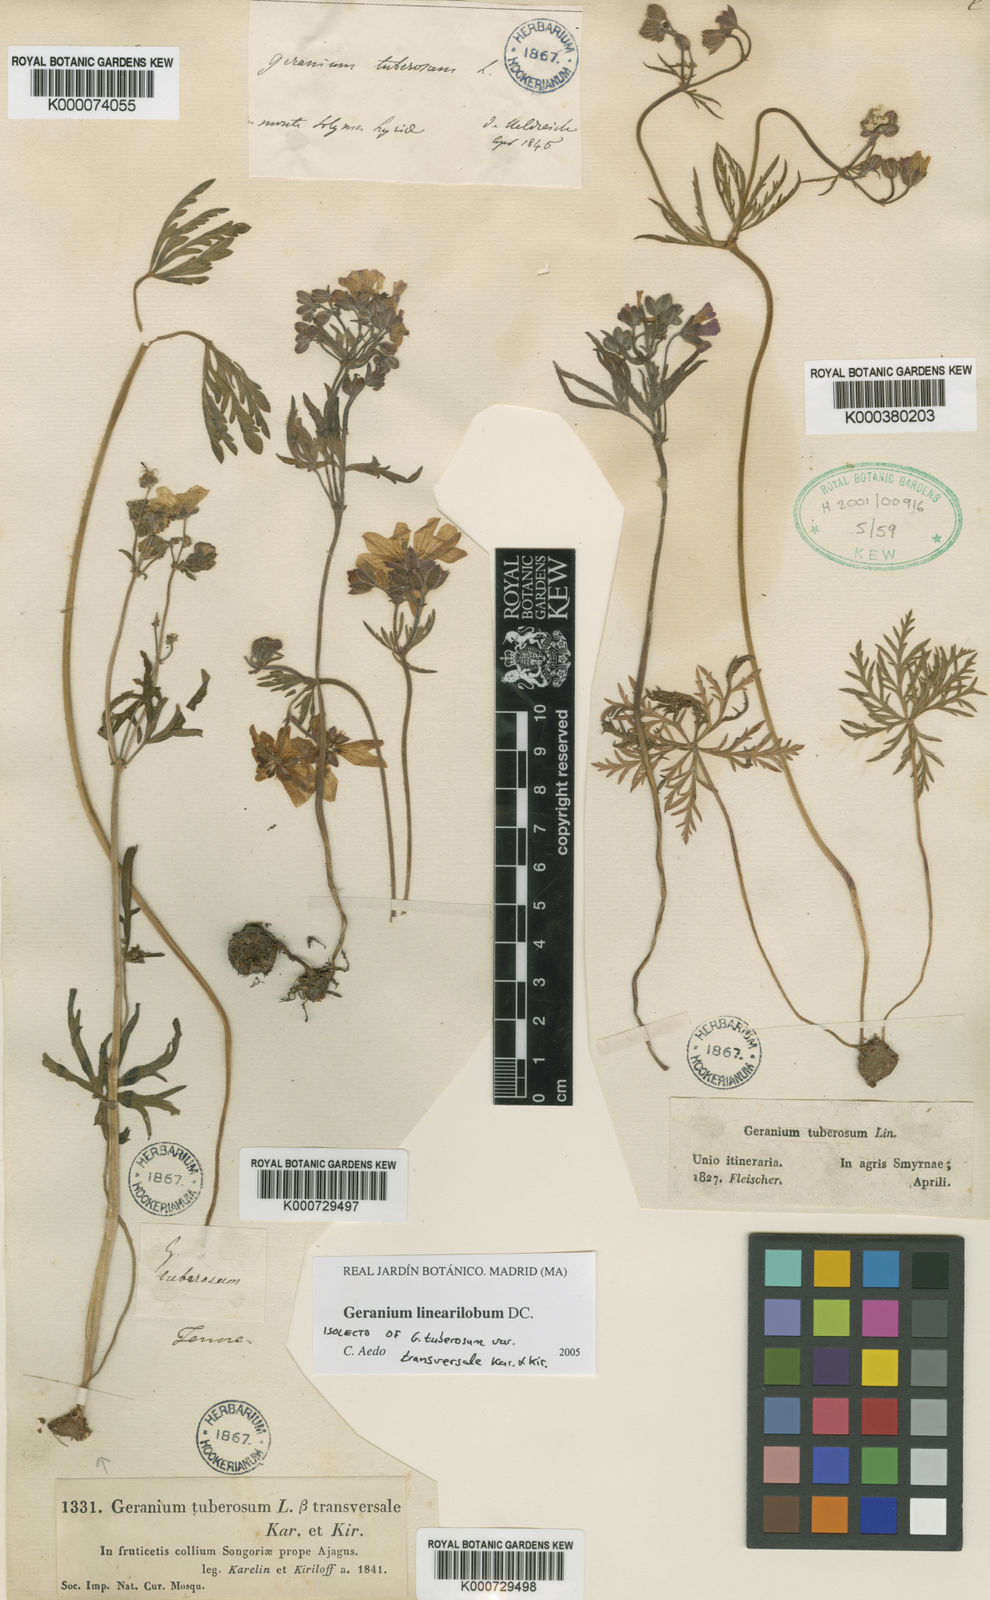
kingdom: Plantae
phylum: Tracheophyta
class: Magnoliopsida
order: Geraniales
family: Geraniaceae
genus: Geranium
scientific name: Geranium linearilobum
